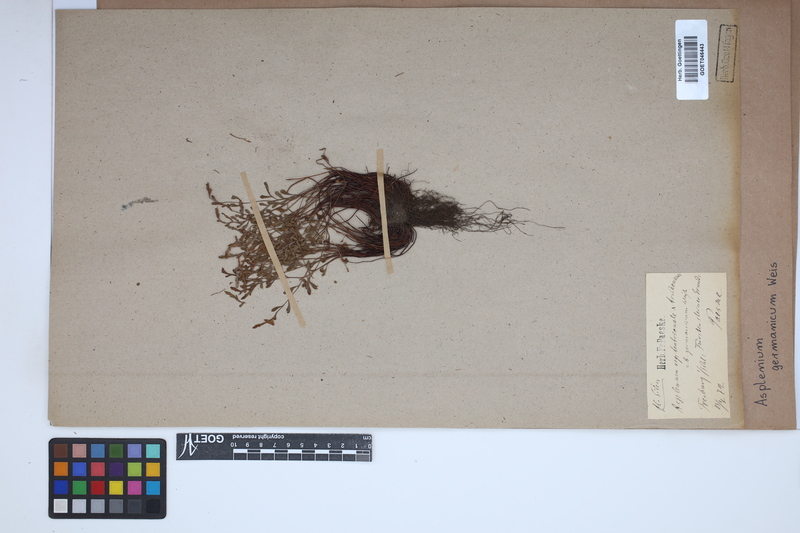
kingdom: Plantae
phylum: Tracheophyta
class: Polypodiopsida
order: Polypodiales
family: Aspleniaceae
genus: Asplenium
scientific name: Asplenium
